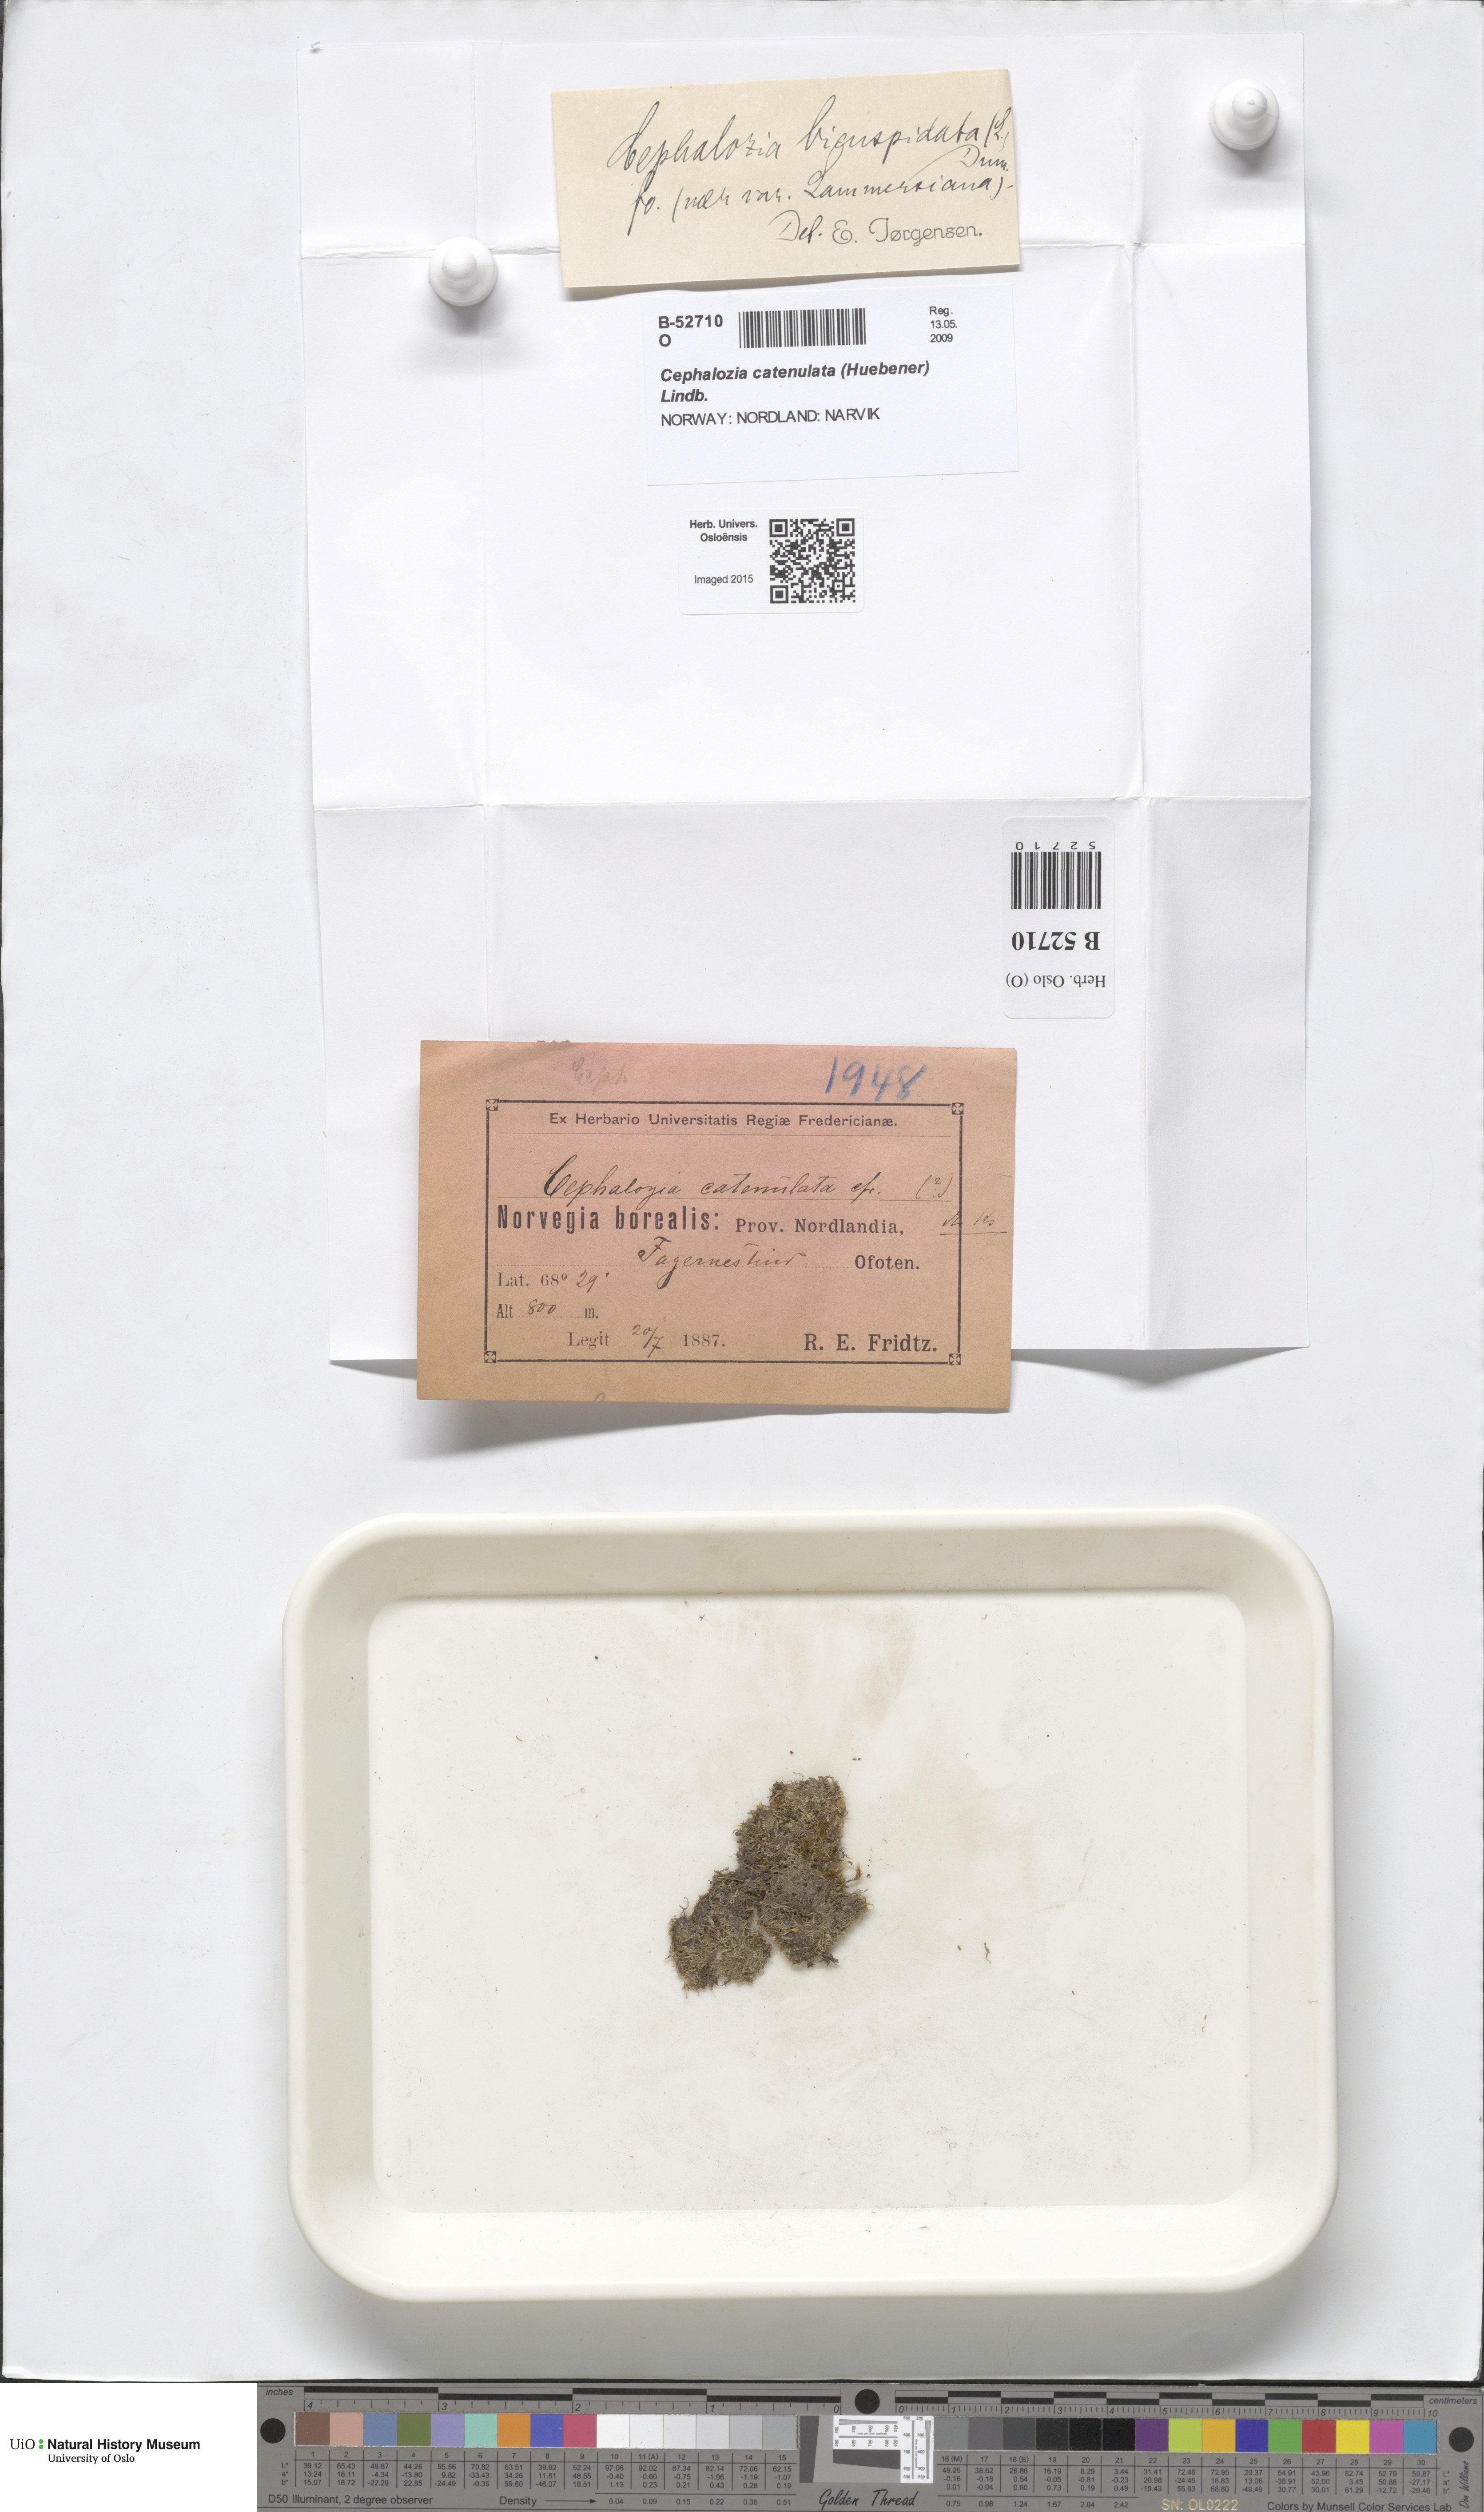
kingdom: Plantae
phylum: Marchantiophyta
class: Jungermanniopsida
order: Jungermanniales
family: Cephaloziaceae
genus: Cephalozia
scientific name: Cephalozia bicuspidata
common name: Two-horned pincerwort
